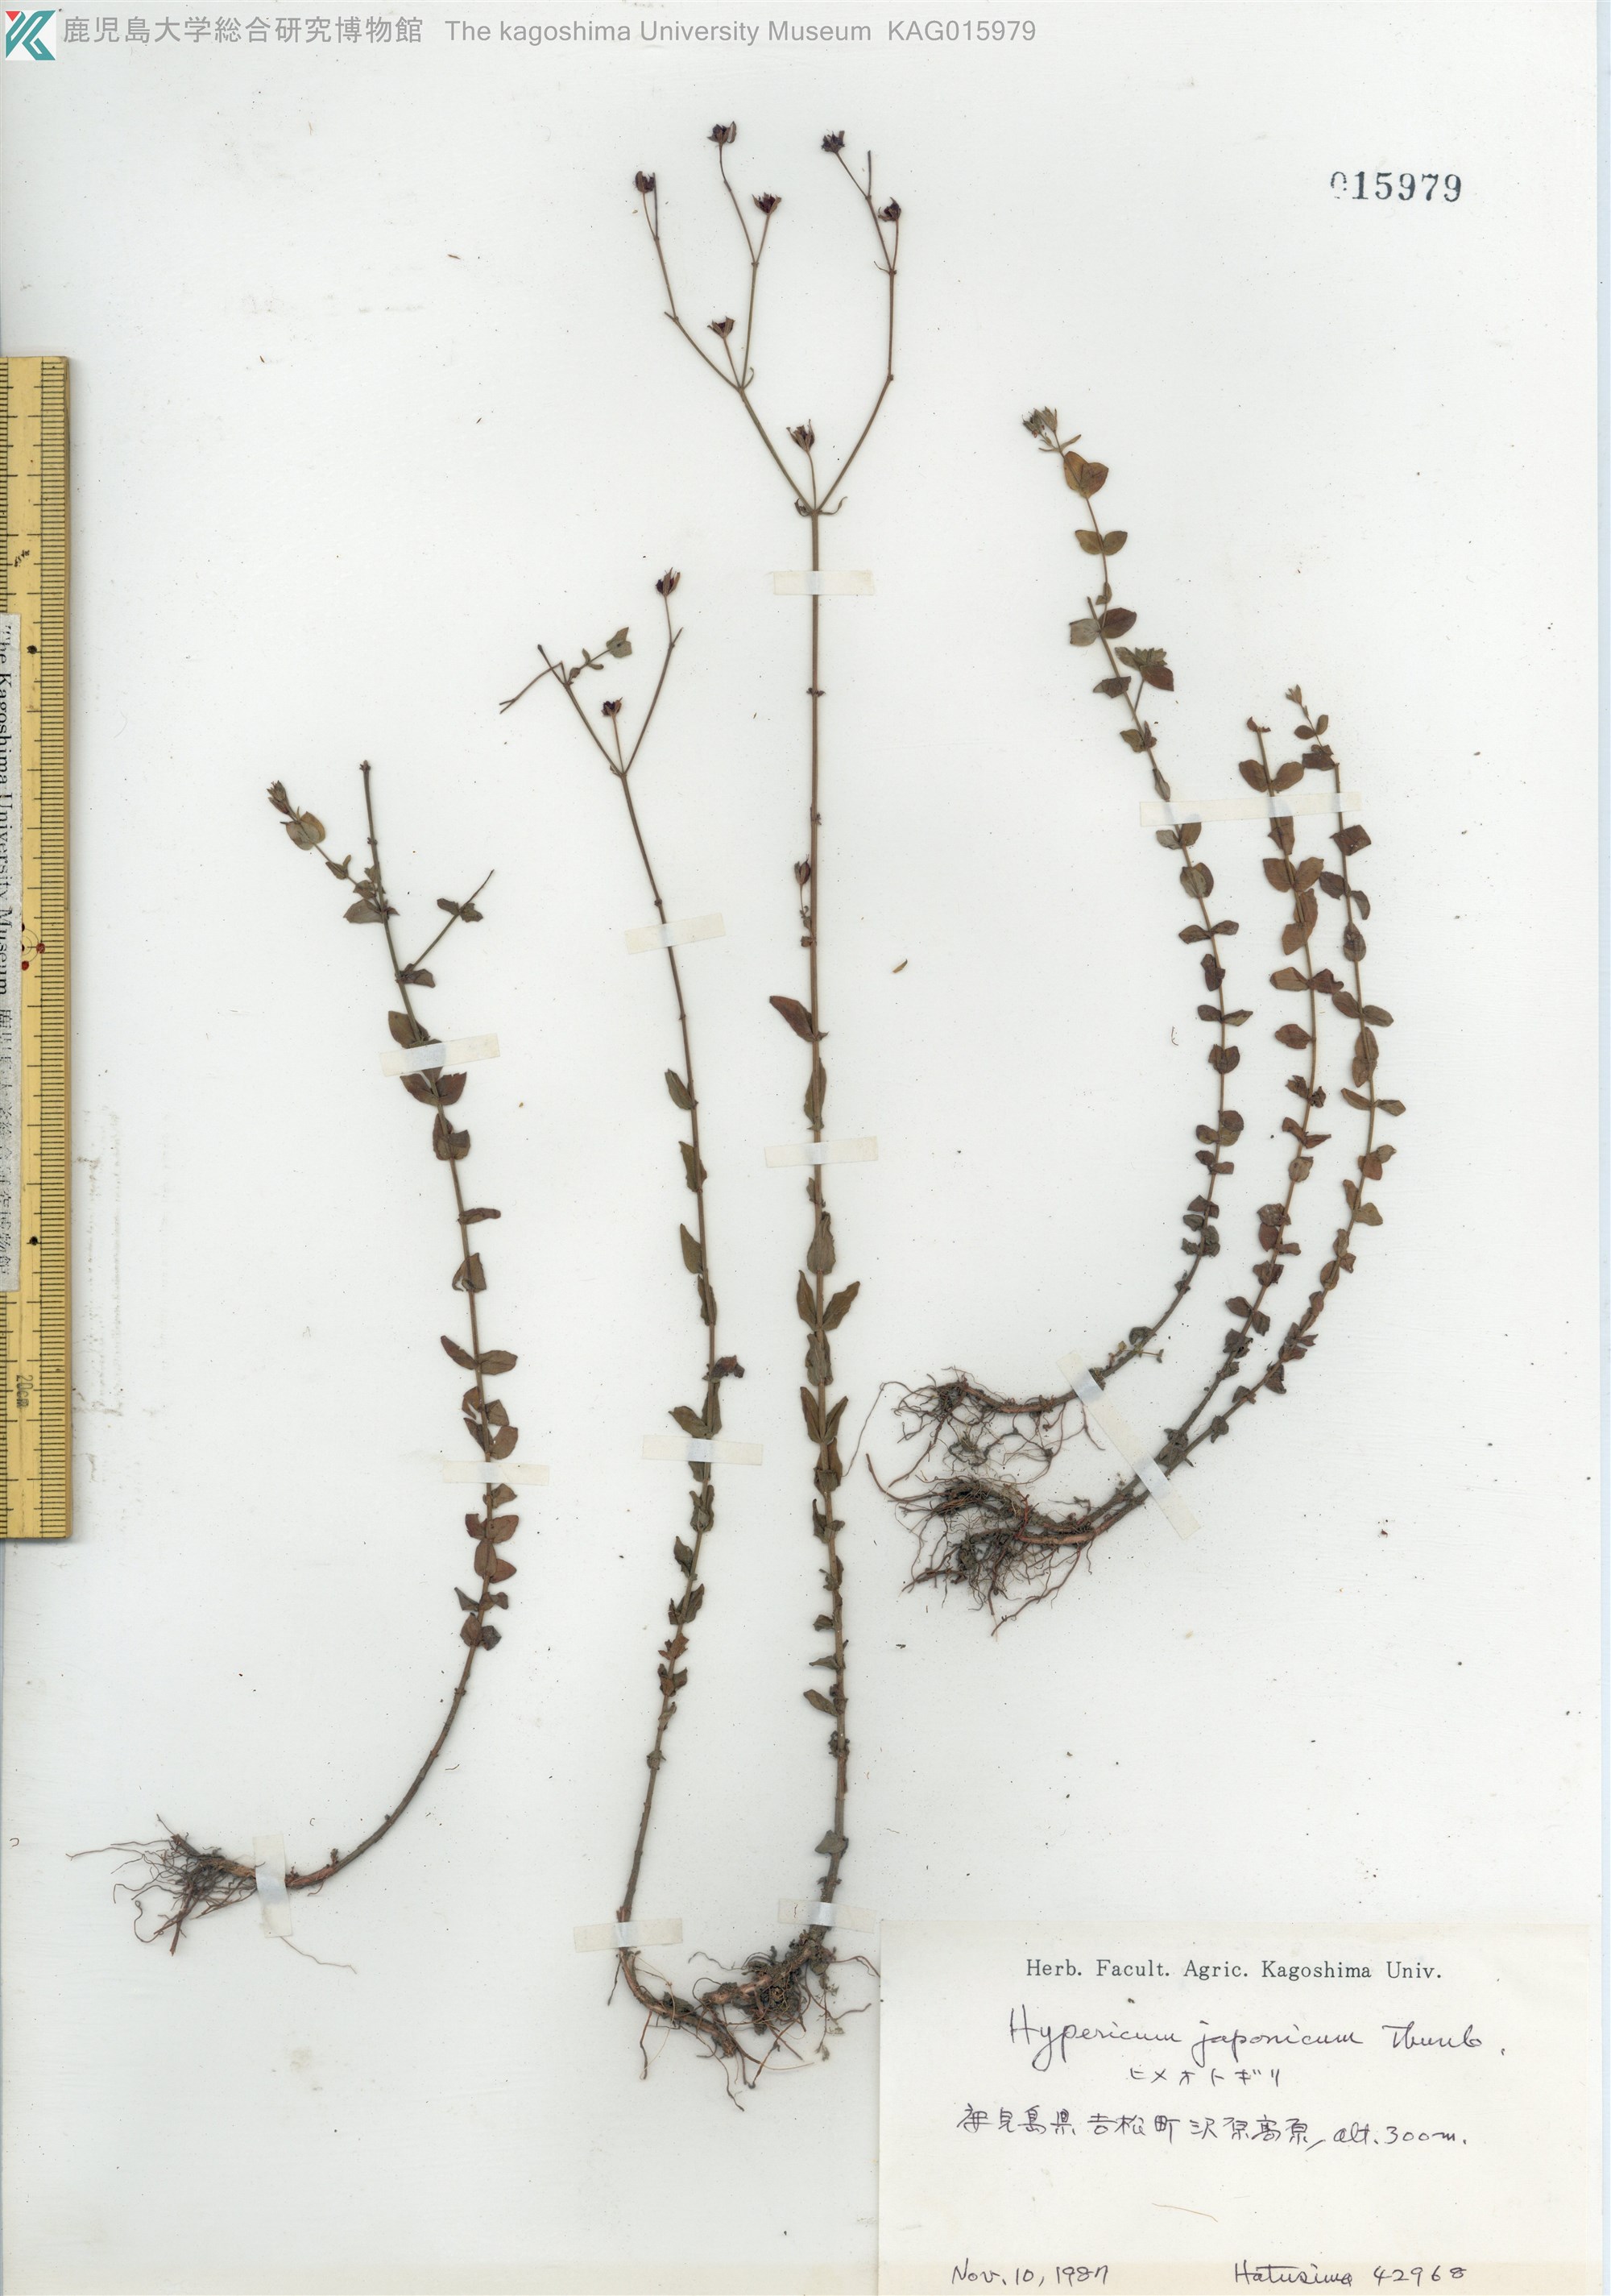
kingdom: Plantae
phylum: Tracheophyta
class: Magnoliopsida
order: Malpighiales
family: Hypericaceae
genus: Hypericum
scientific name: Hypericum japonicum
